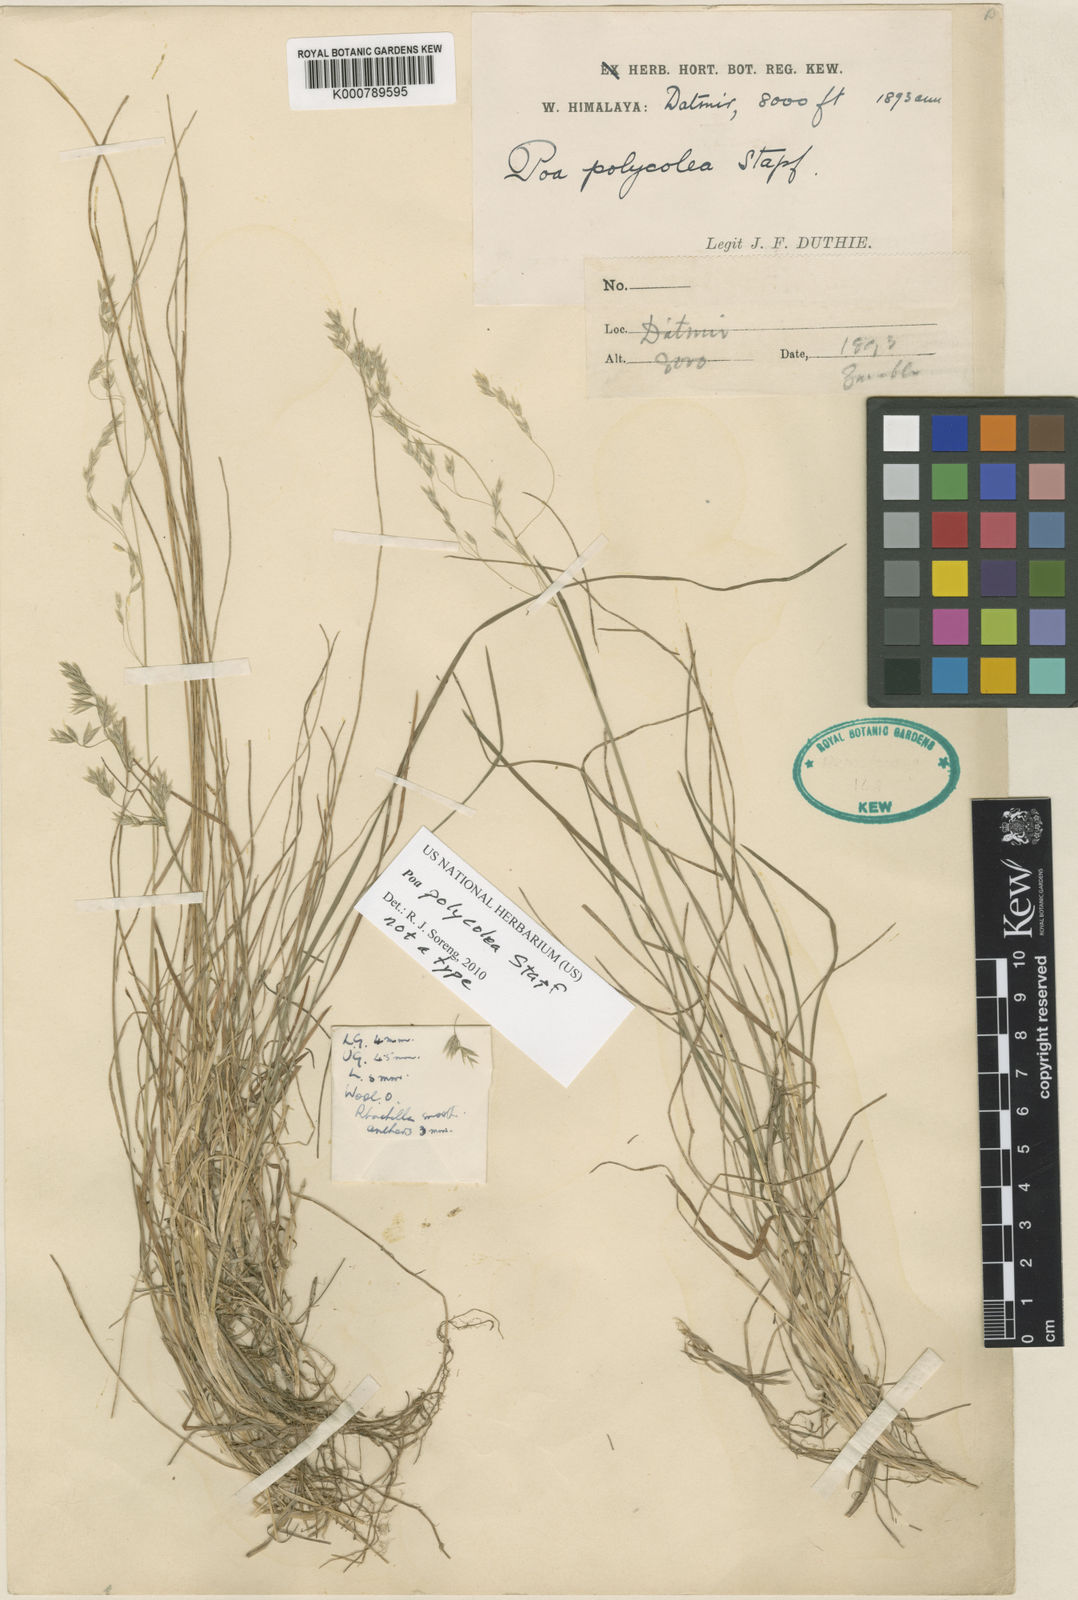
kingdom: Plantae
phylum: Tracheophyta
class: Liliopsida
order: Poales
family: Poaceae
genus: Poa
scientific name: Poa polycolea
